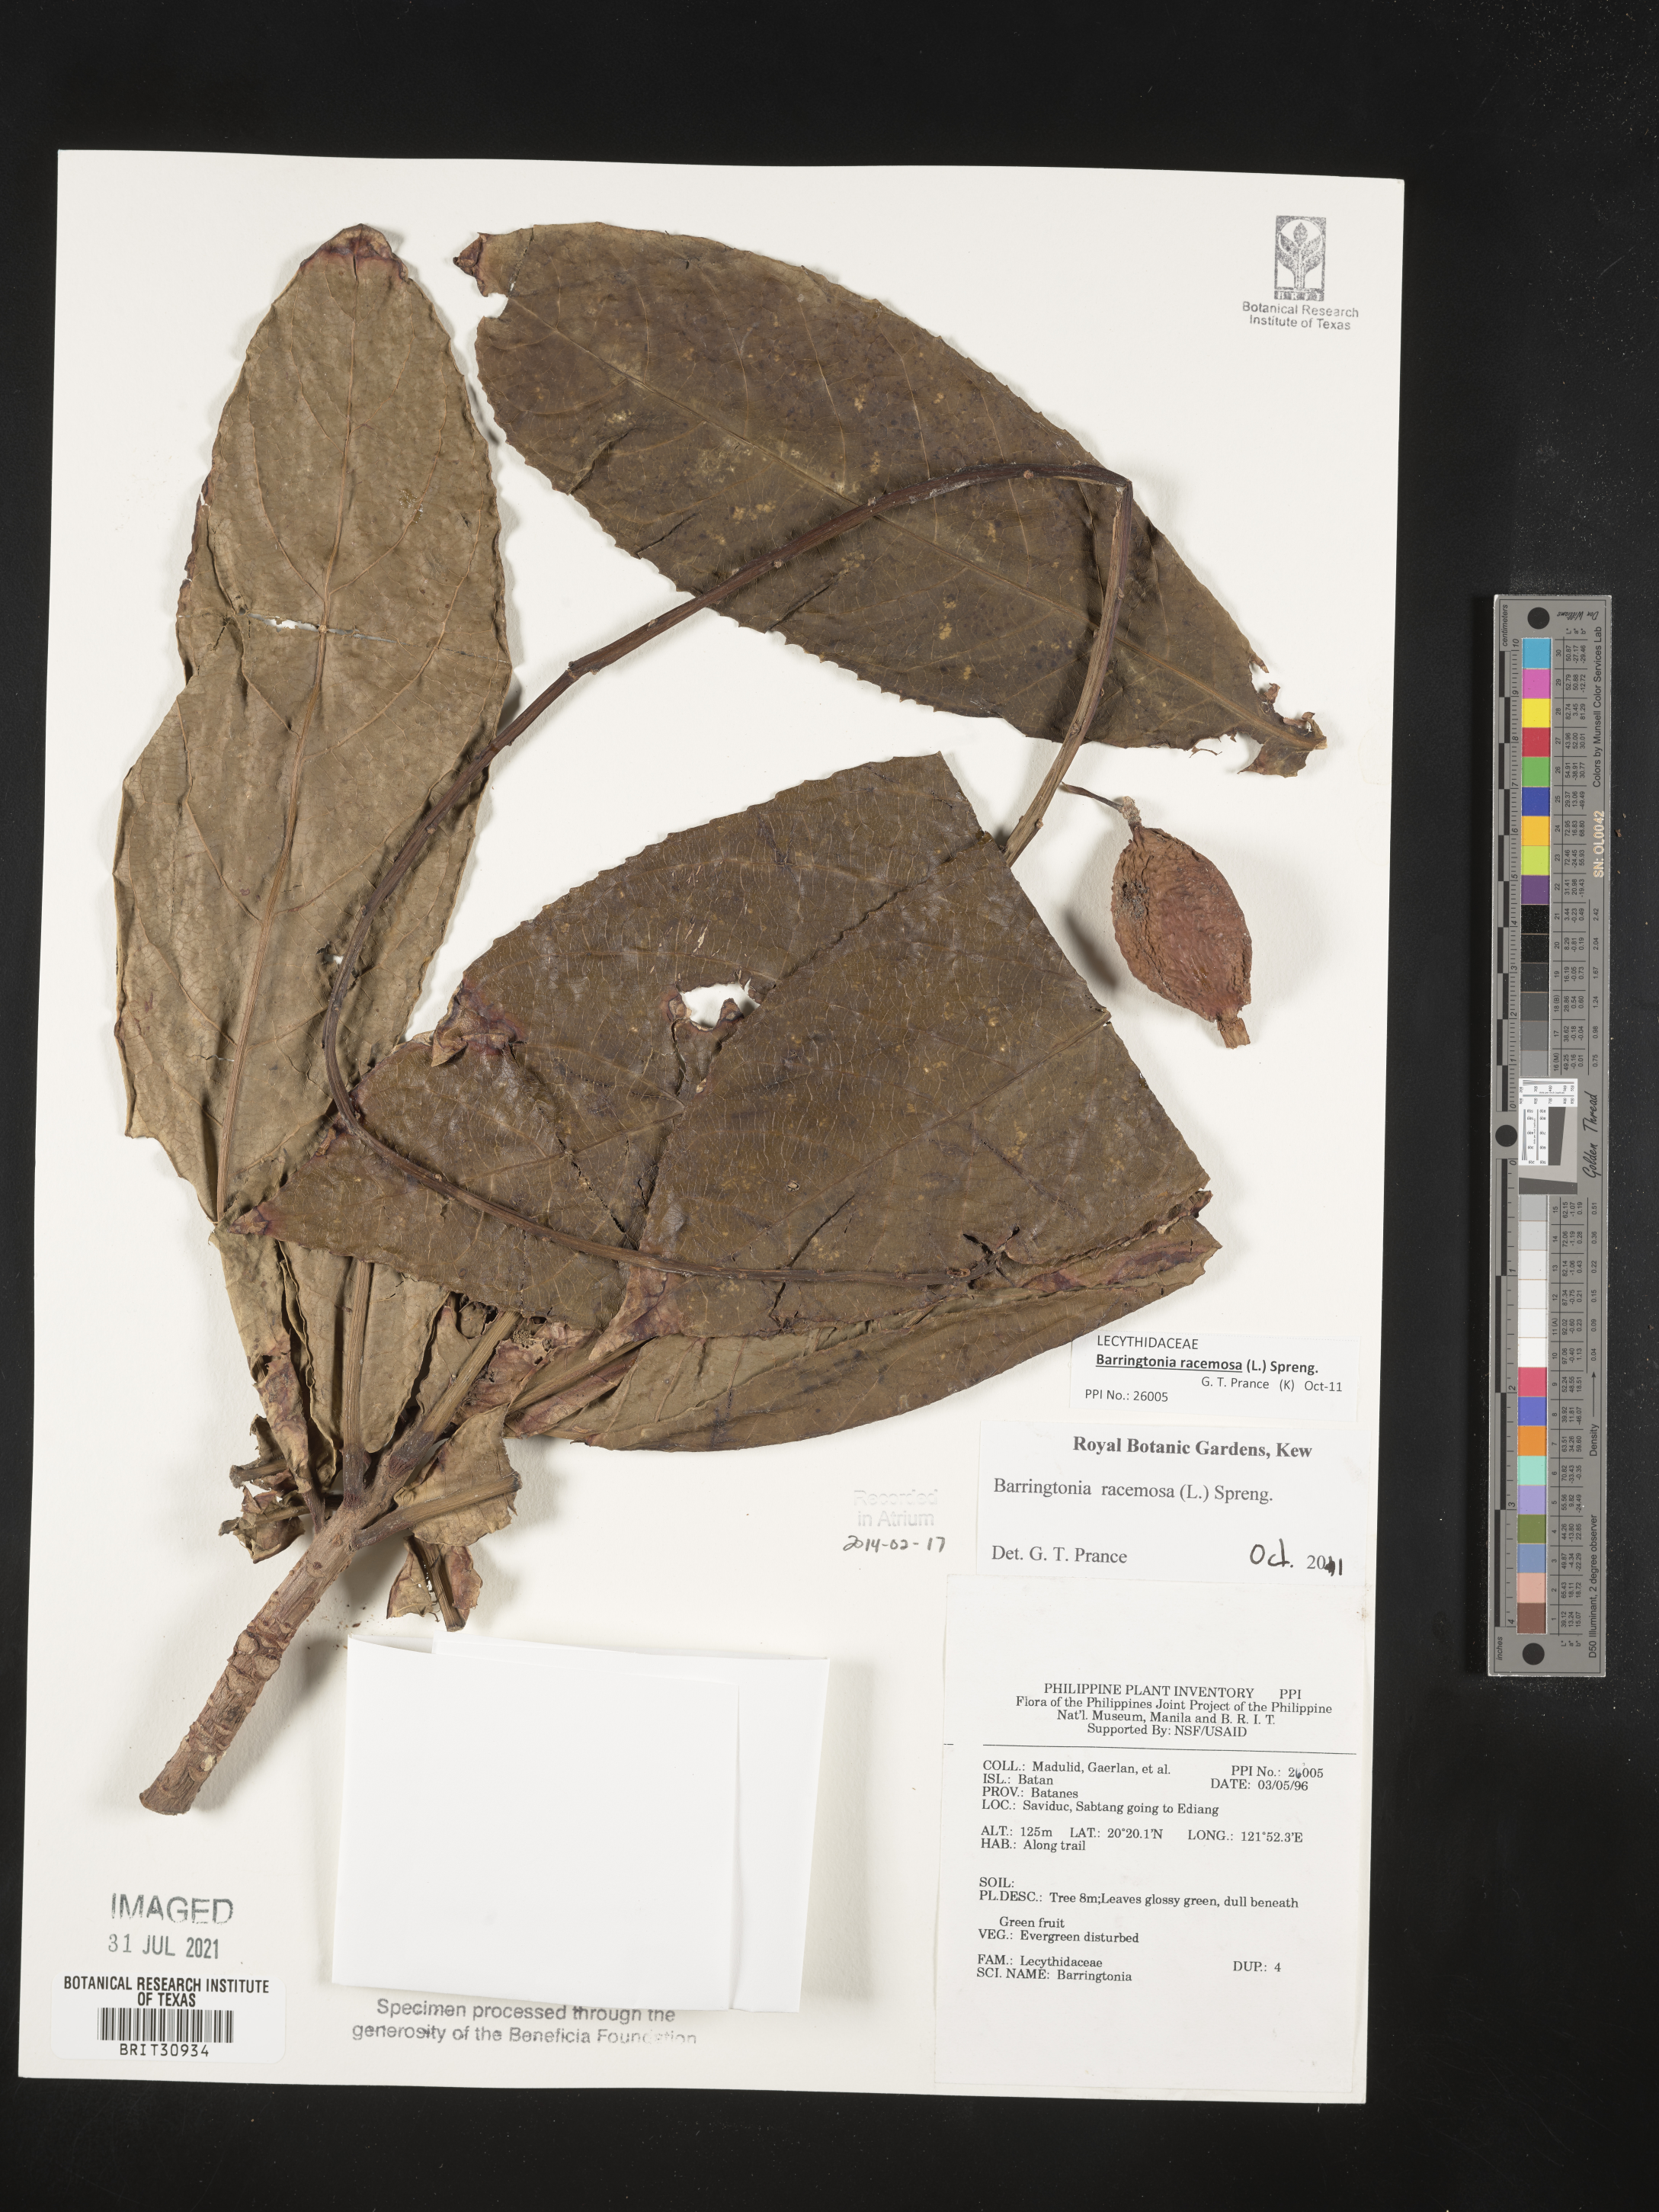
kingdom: Plantae
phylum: Tracheophyta
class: Magnoliopsida
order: Ericales
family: Lecythidaceae
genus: Barringtonia
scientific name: Barringtonia
